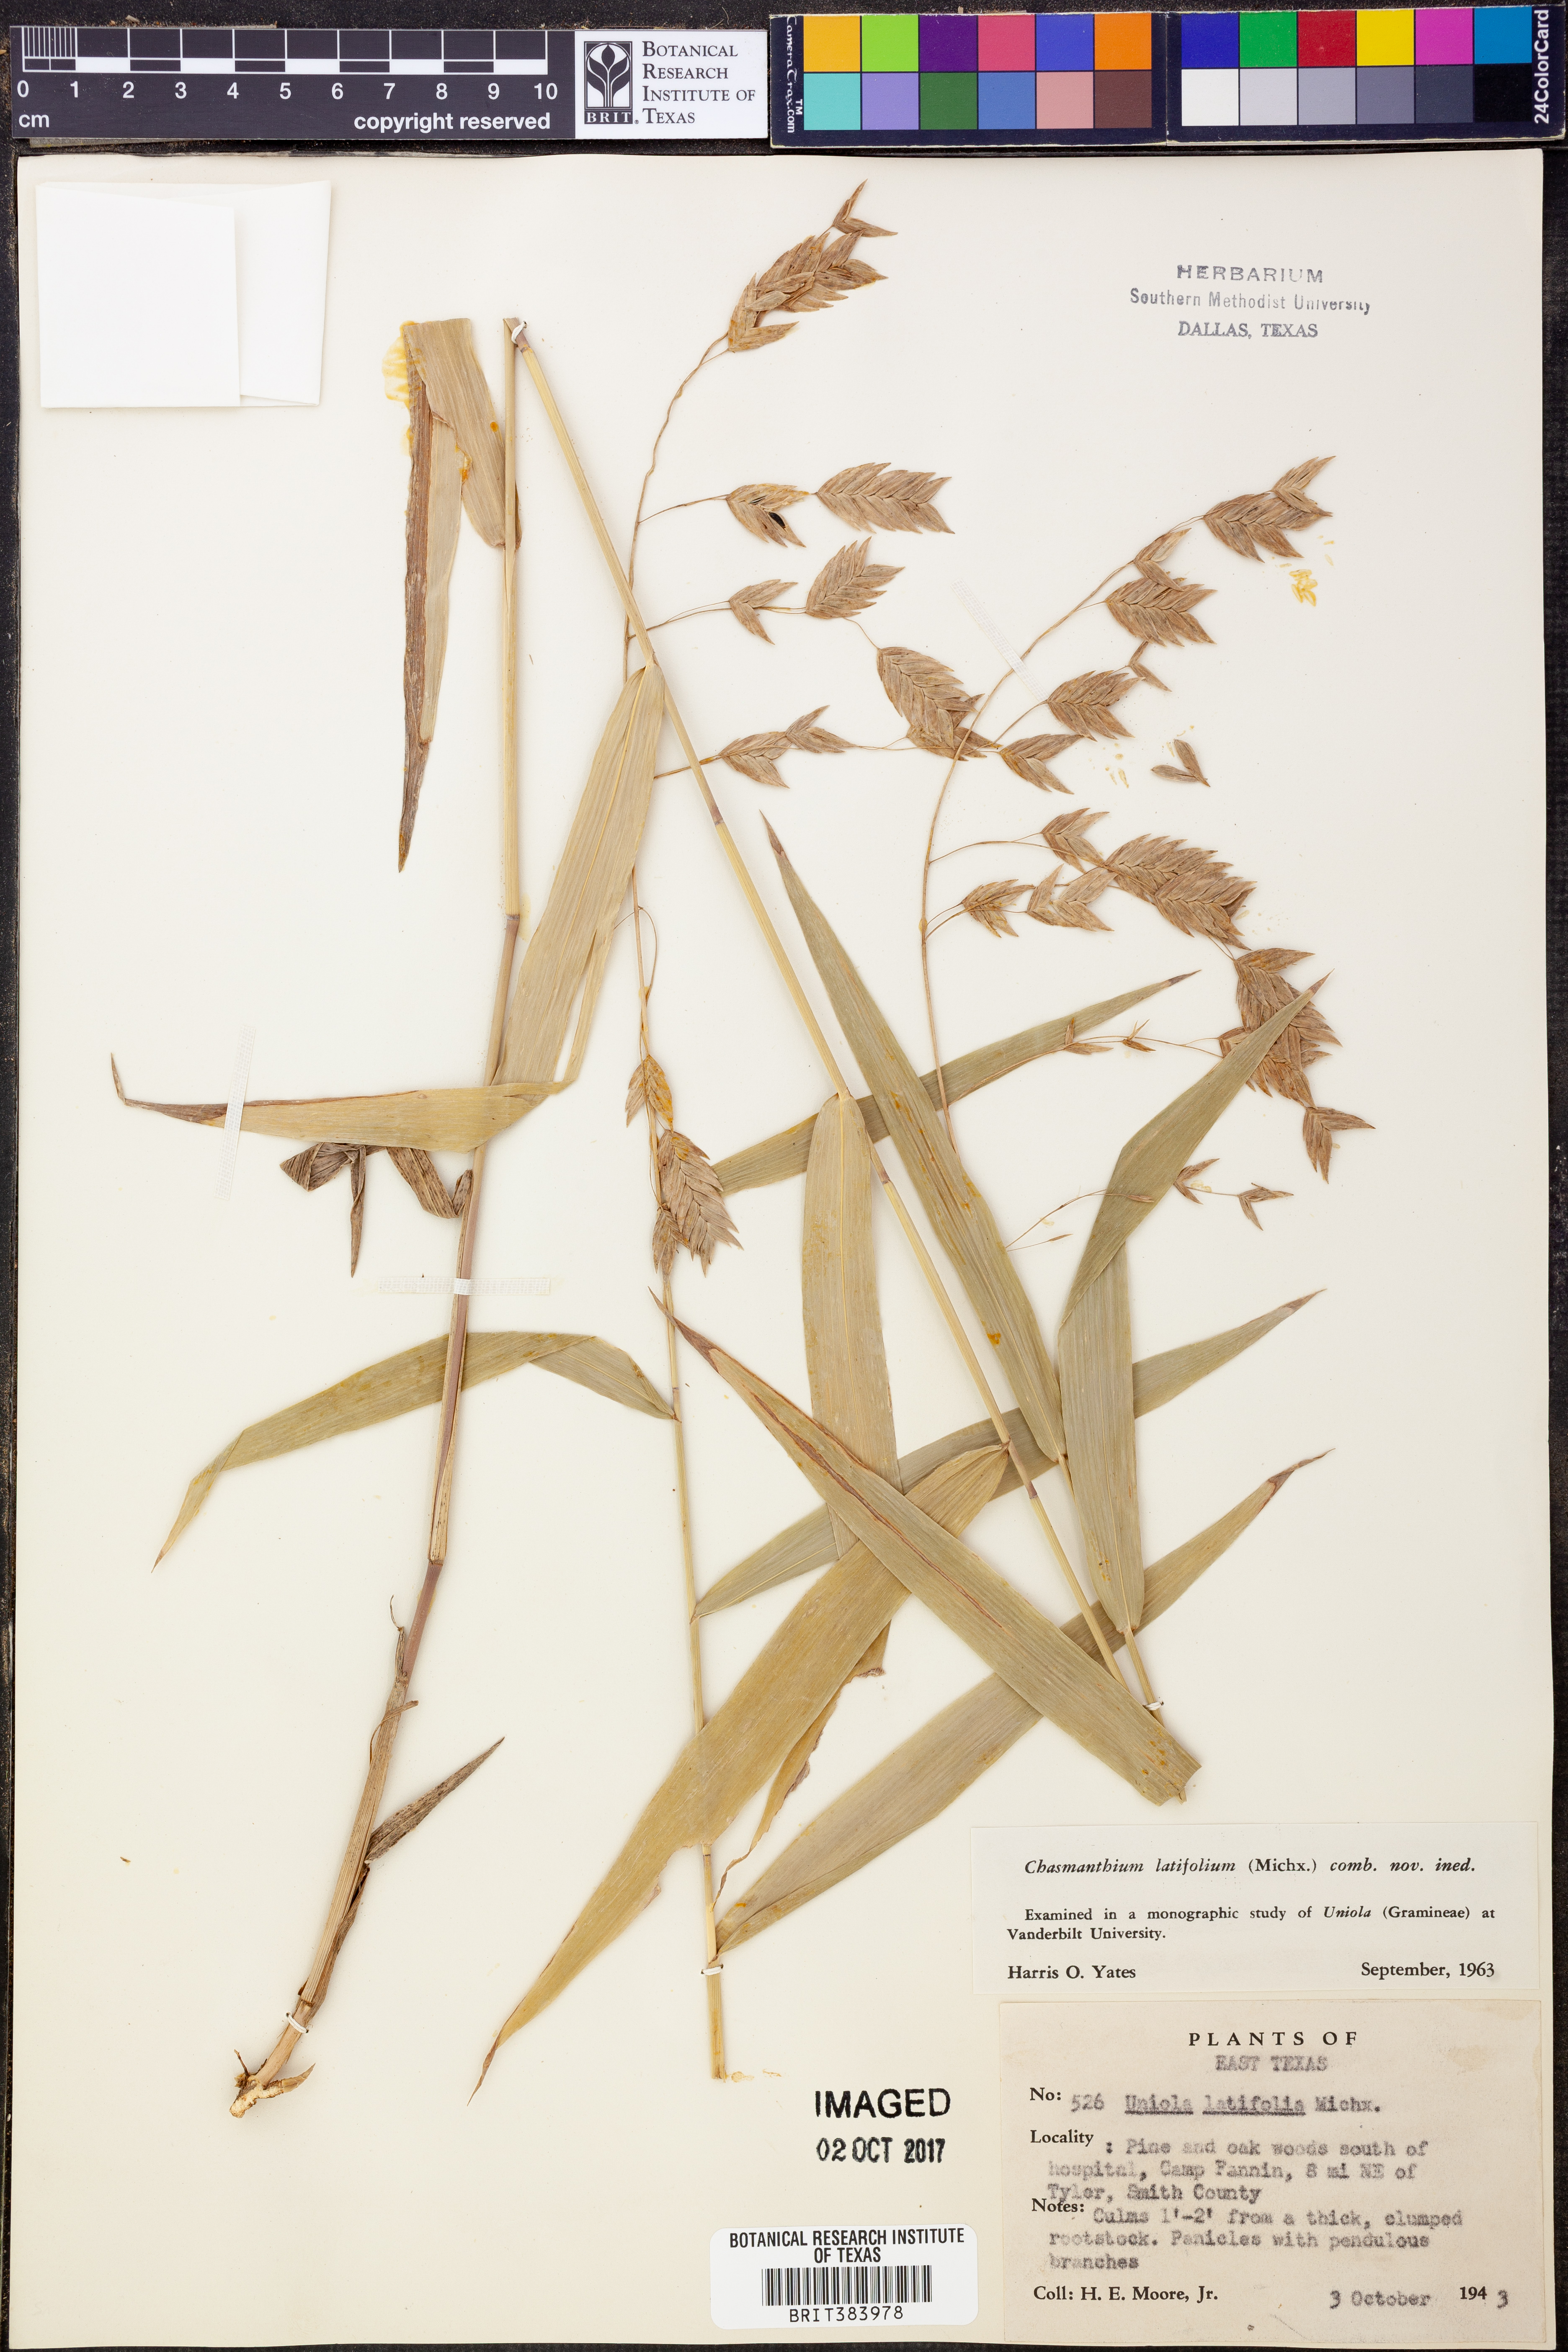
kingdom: Plantae
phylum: Tracheophyta
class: Liliopsida
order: Poales
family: Poaceae
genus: Chasmanthium
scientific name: Chasmanthium latifolium
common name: Broad-leaved chasmanthium
